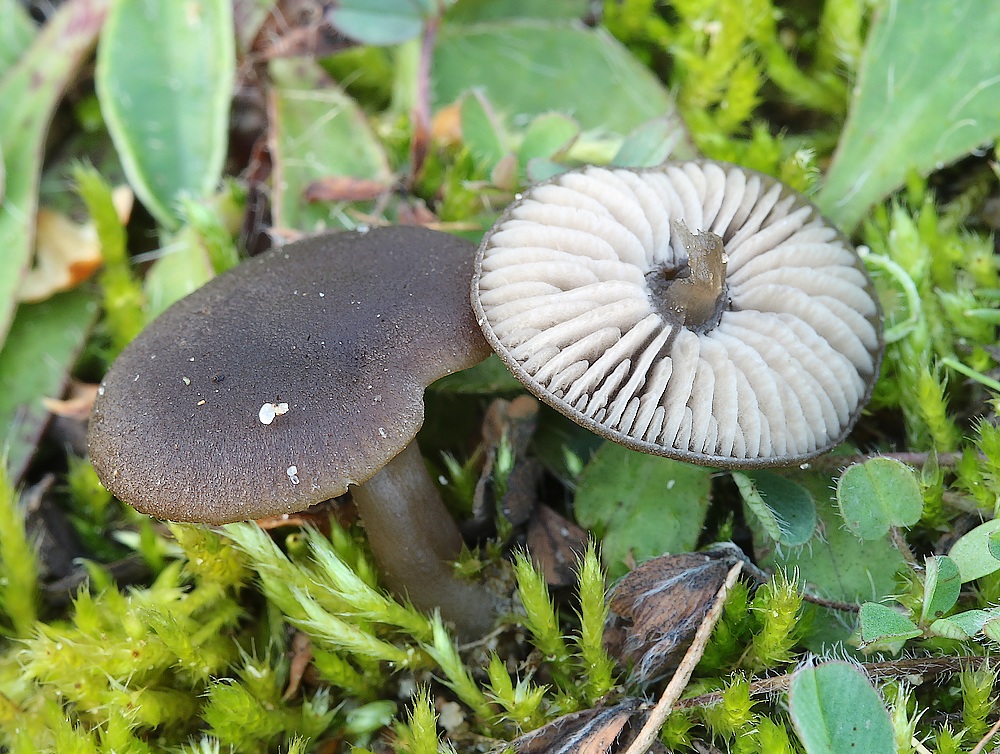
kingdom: Fungi
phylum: Basidiomycota
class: Agaricomycetes
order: Agaricales
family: Entolomataceae
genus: Entoloma
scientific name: Entoloma
